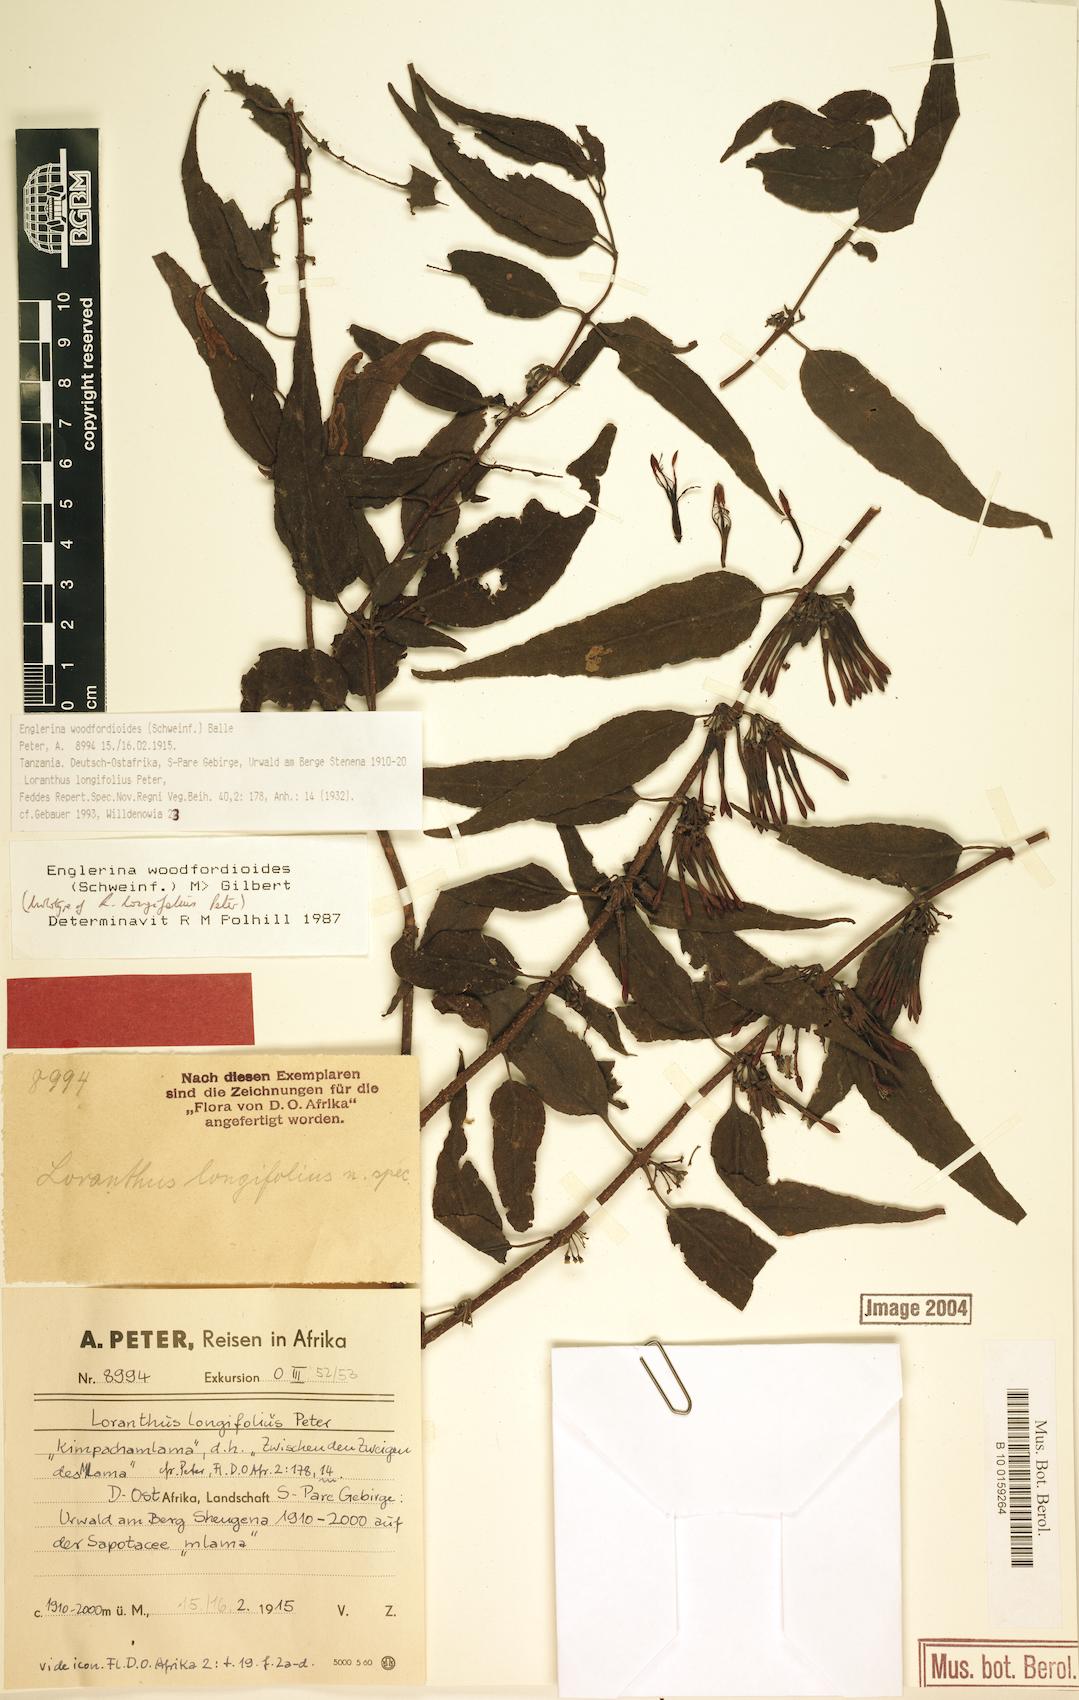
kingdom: Plantae
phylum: Tracheophyta
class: Magnoliopsida
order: Santalales
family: Loranthaceae
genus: Englerina
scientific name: Englerina woodfordioides
